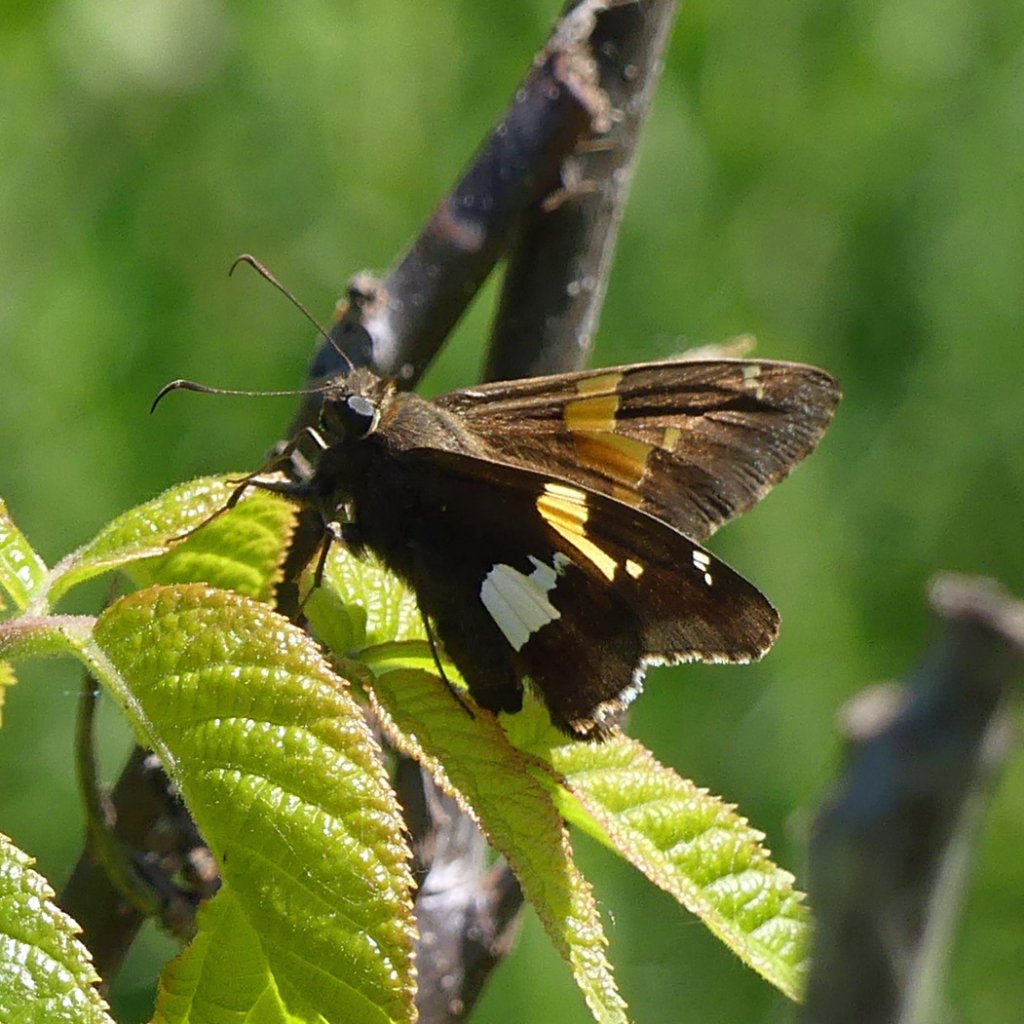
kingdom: Animalia
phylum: Arthropoda
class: Insecta
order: Lepidoptera
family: Hesperiidae
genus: Epargyreus
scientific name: Epargyreus clarus
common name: Silver-spotted Skipper
